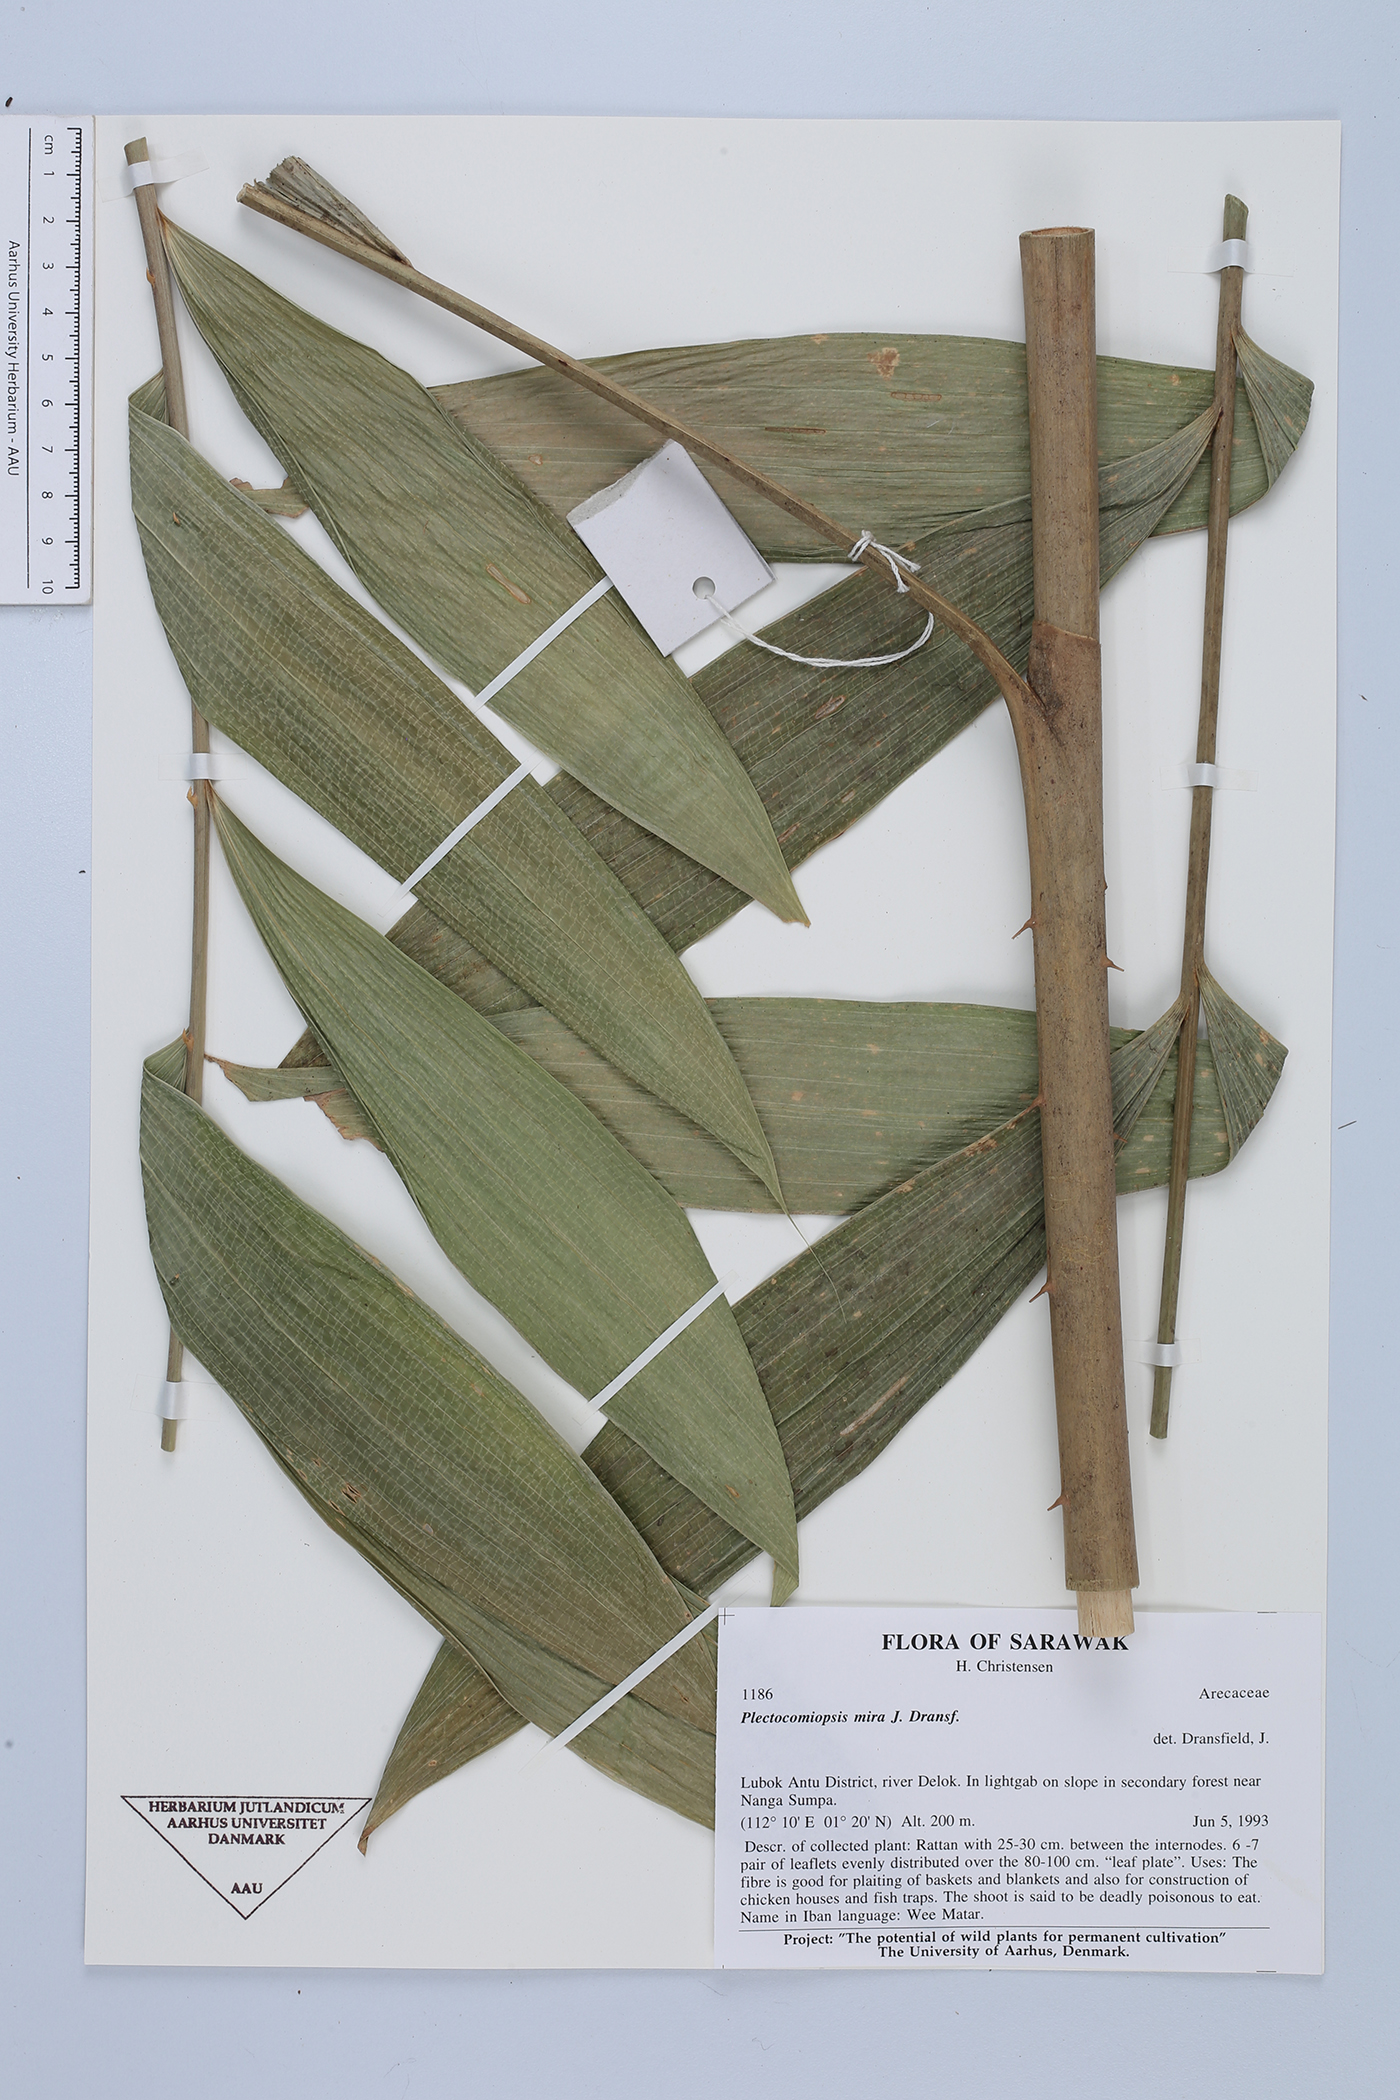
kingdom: Plantae
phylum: Tracheophyta
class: Liliopsida
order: Arecales
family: Arecaceae
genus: Plectocomiopsis
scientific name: Plectocomiopsis mira
